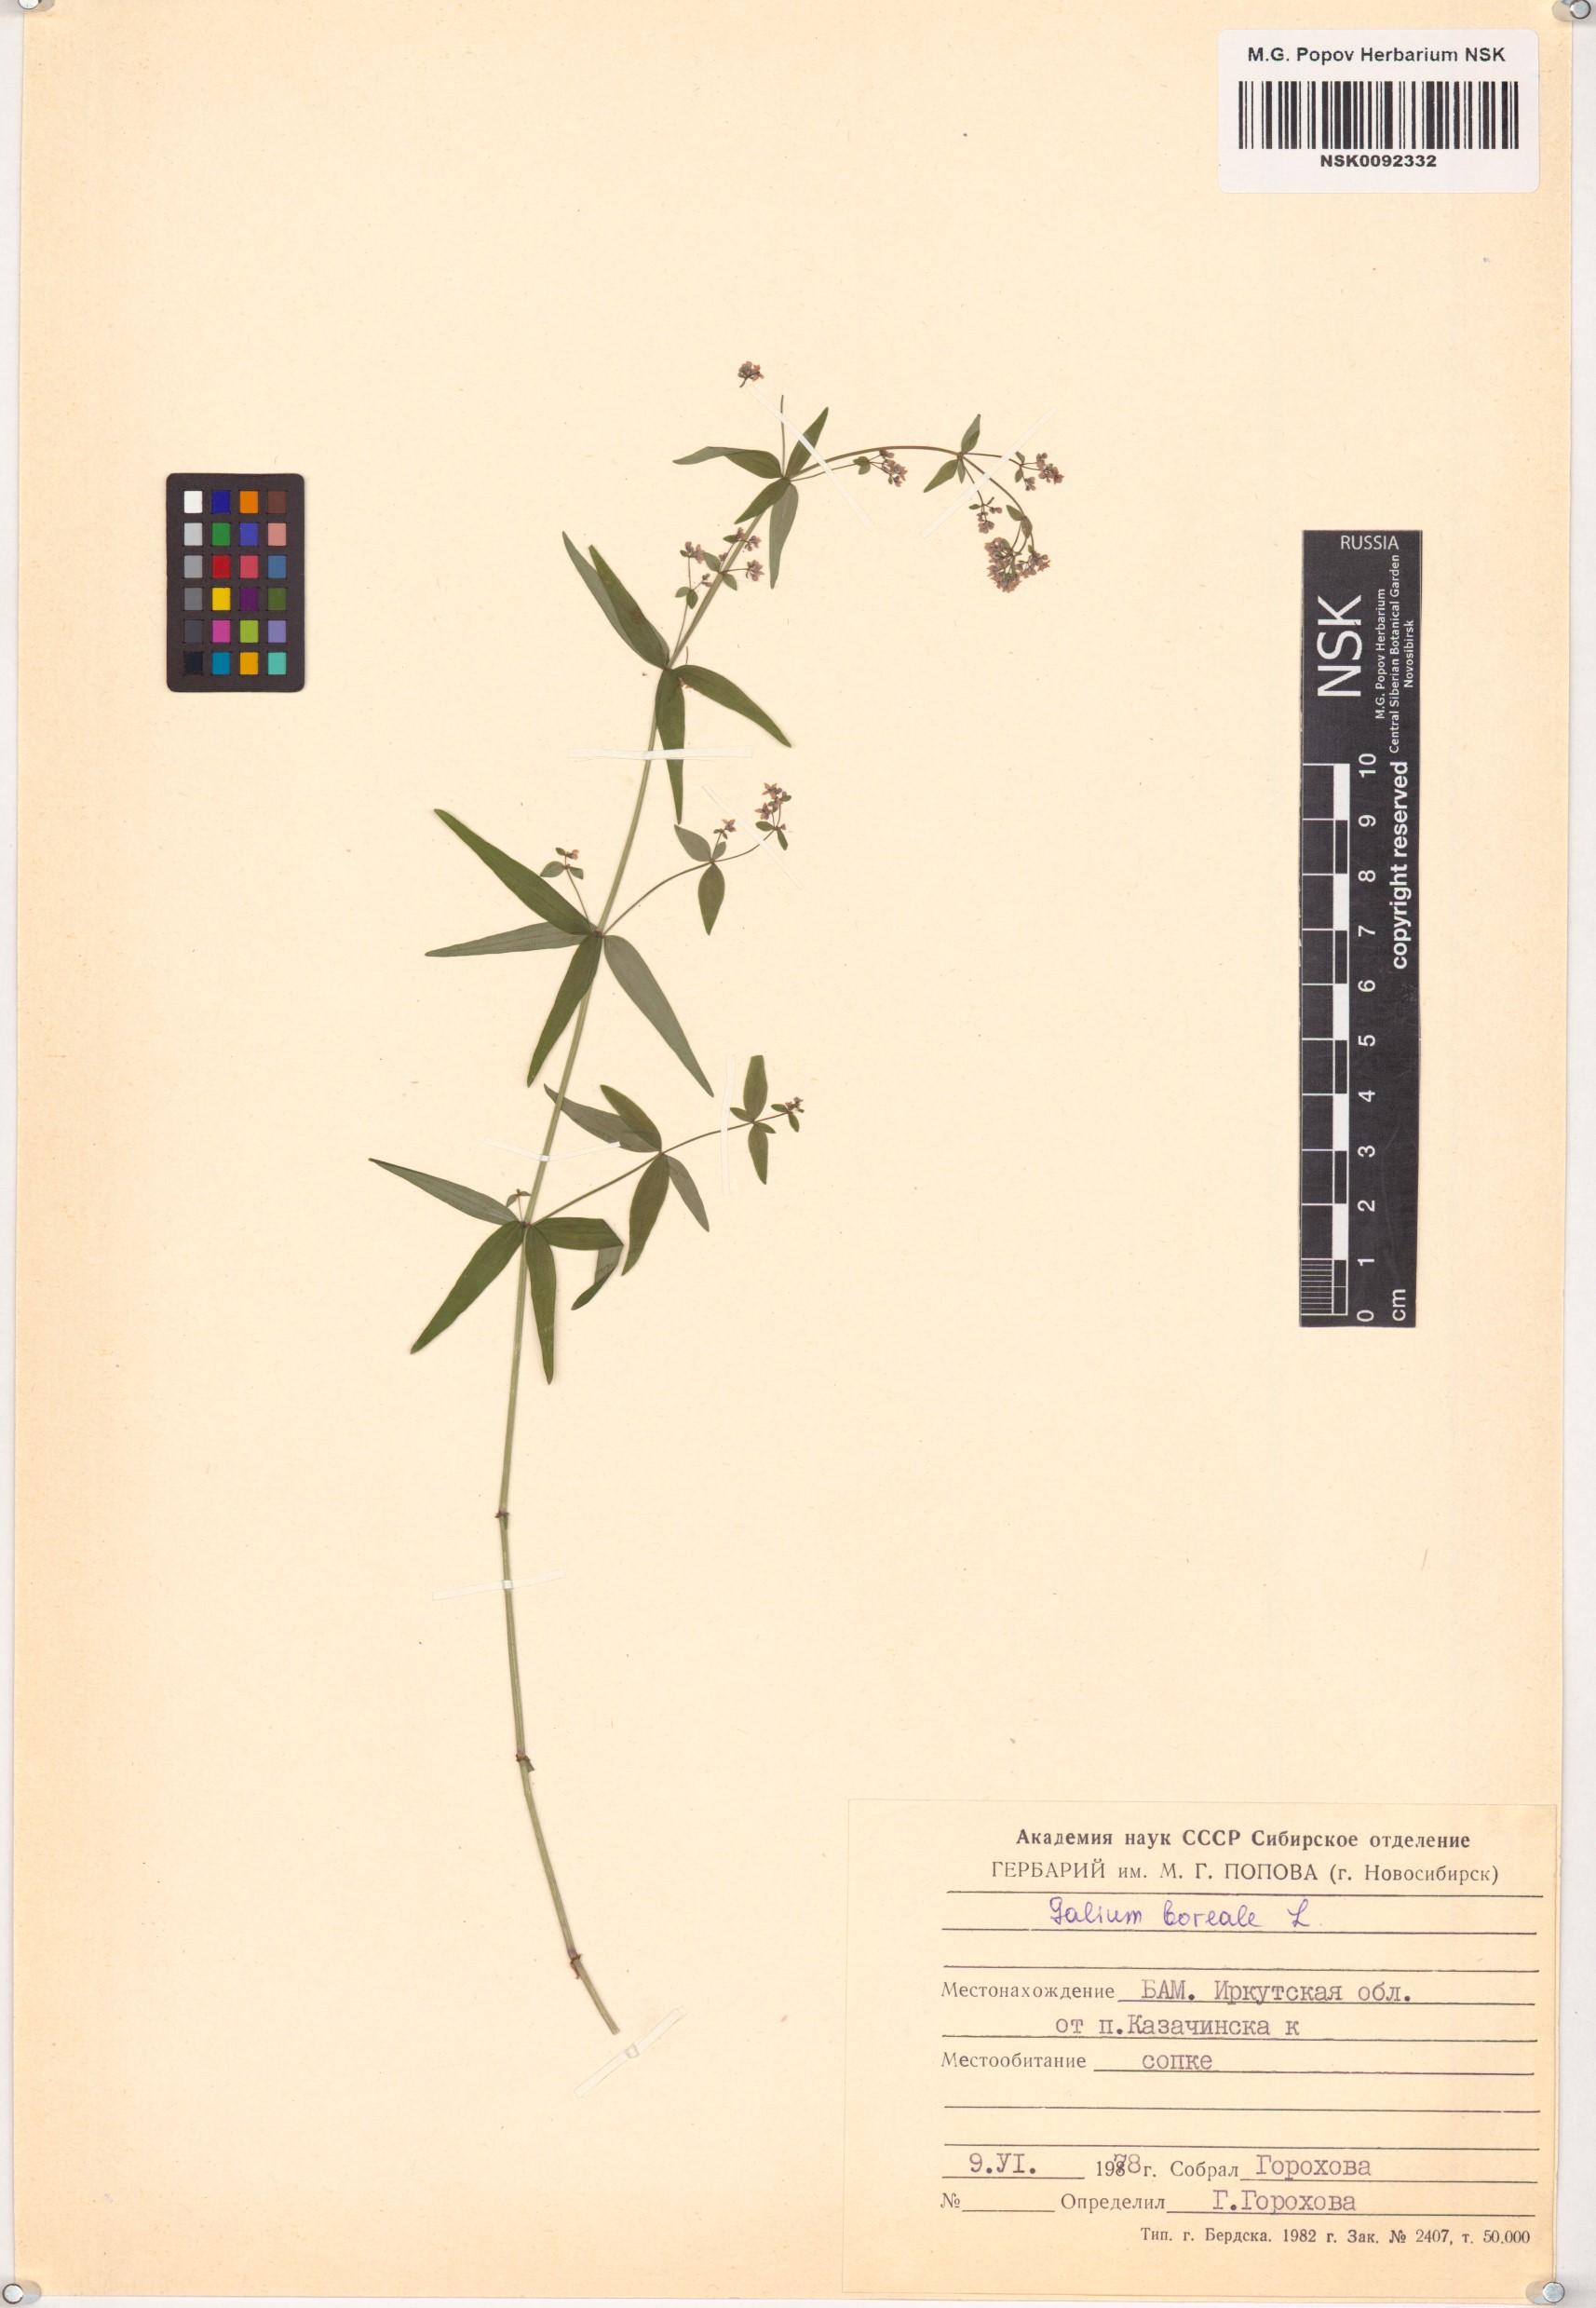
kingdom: Plantae
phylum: Tracheophyta
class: Magnoliopsida
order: Gentianales
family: Rubiaceae
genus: Galium
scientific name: Galium boreale
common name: Northern bedstraw
